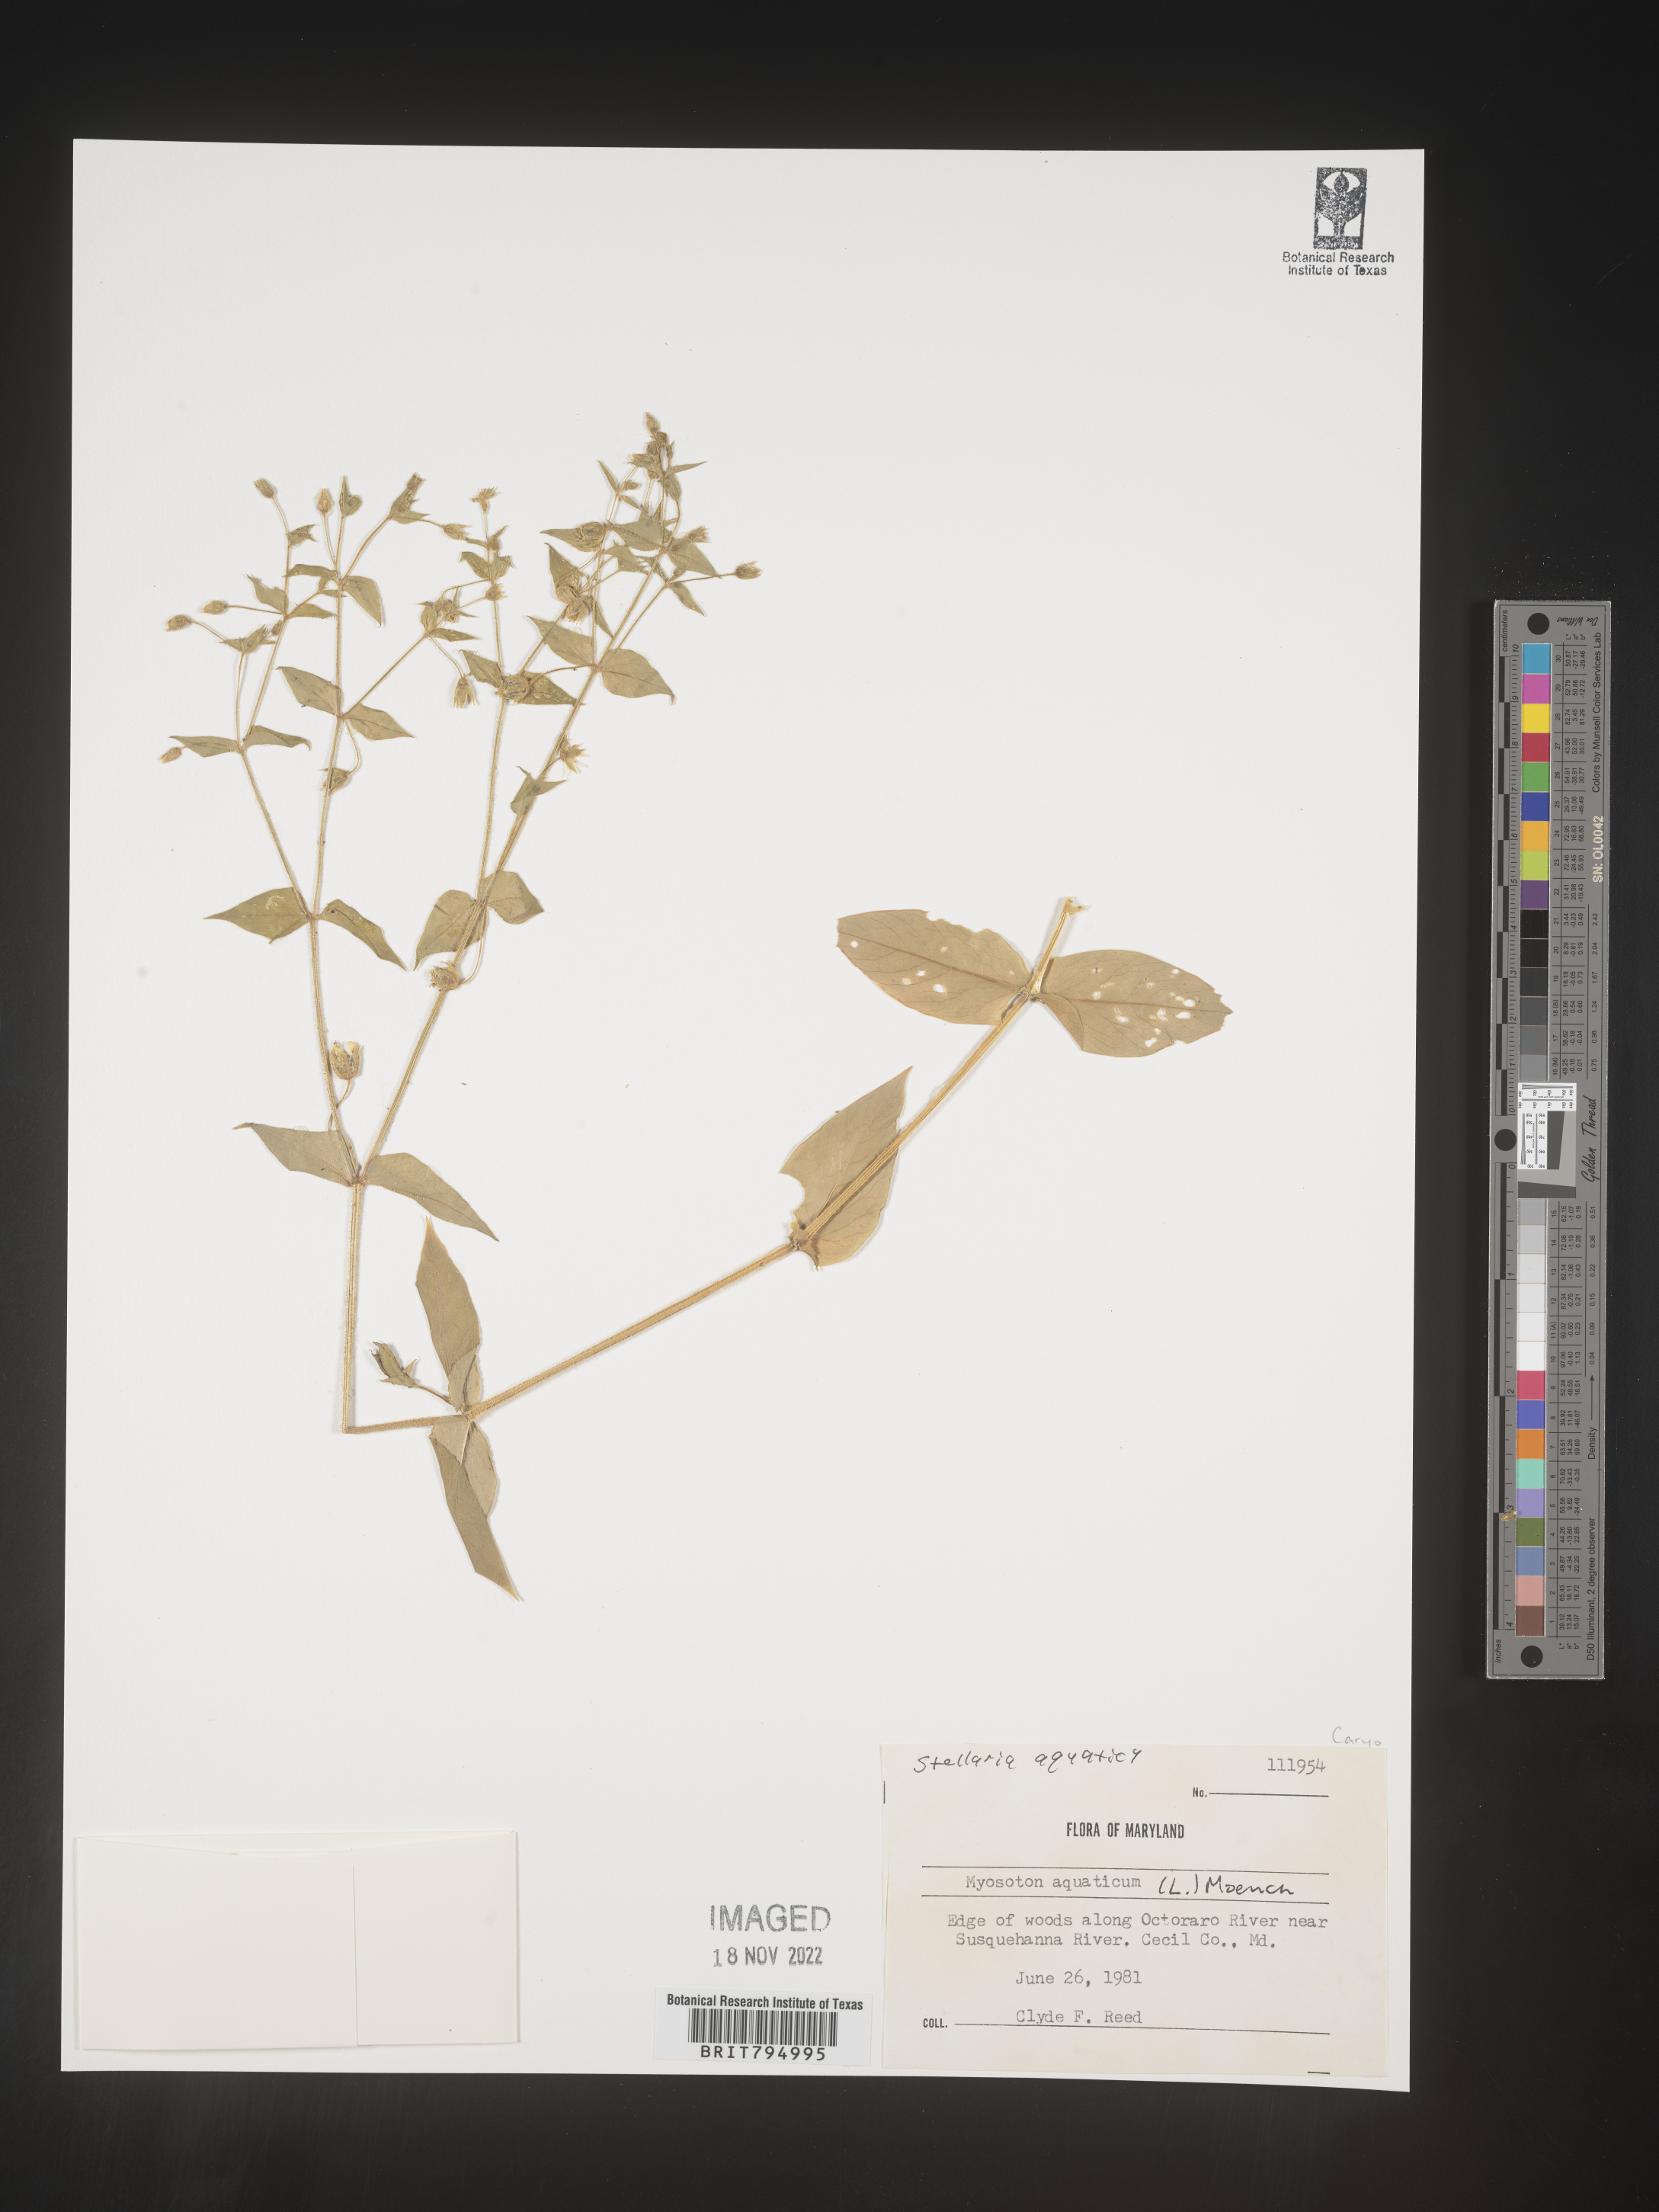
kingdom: Plantae
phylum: Tracheophyta
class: Magnoliopsida
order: Caryophyllales
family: Caryophyllaceae
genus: Stellaria
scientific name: Stellaria aquatica
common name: Water chickweed
